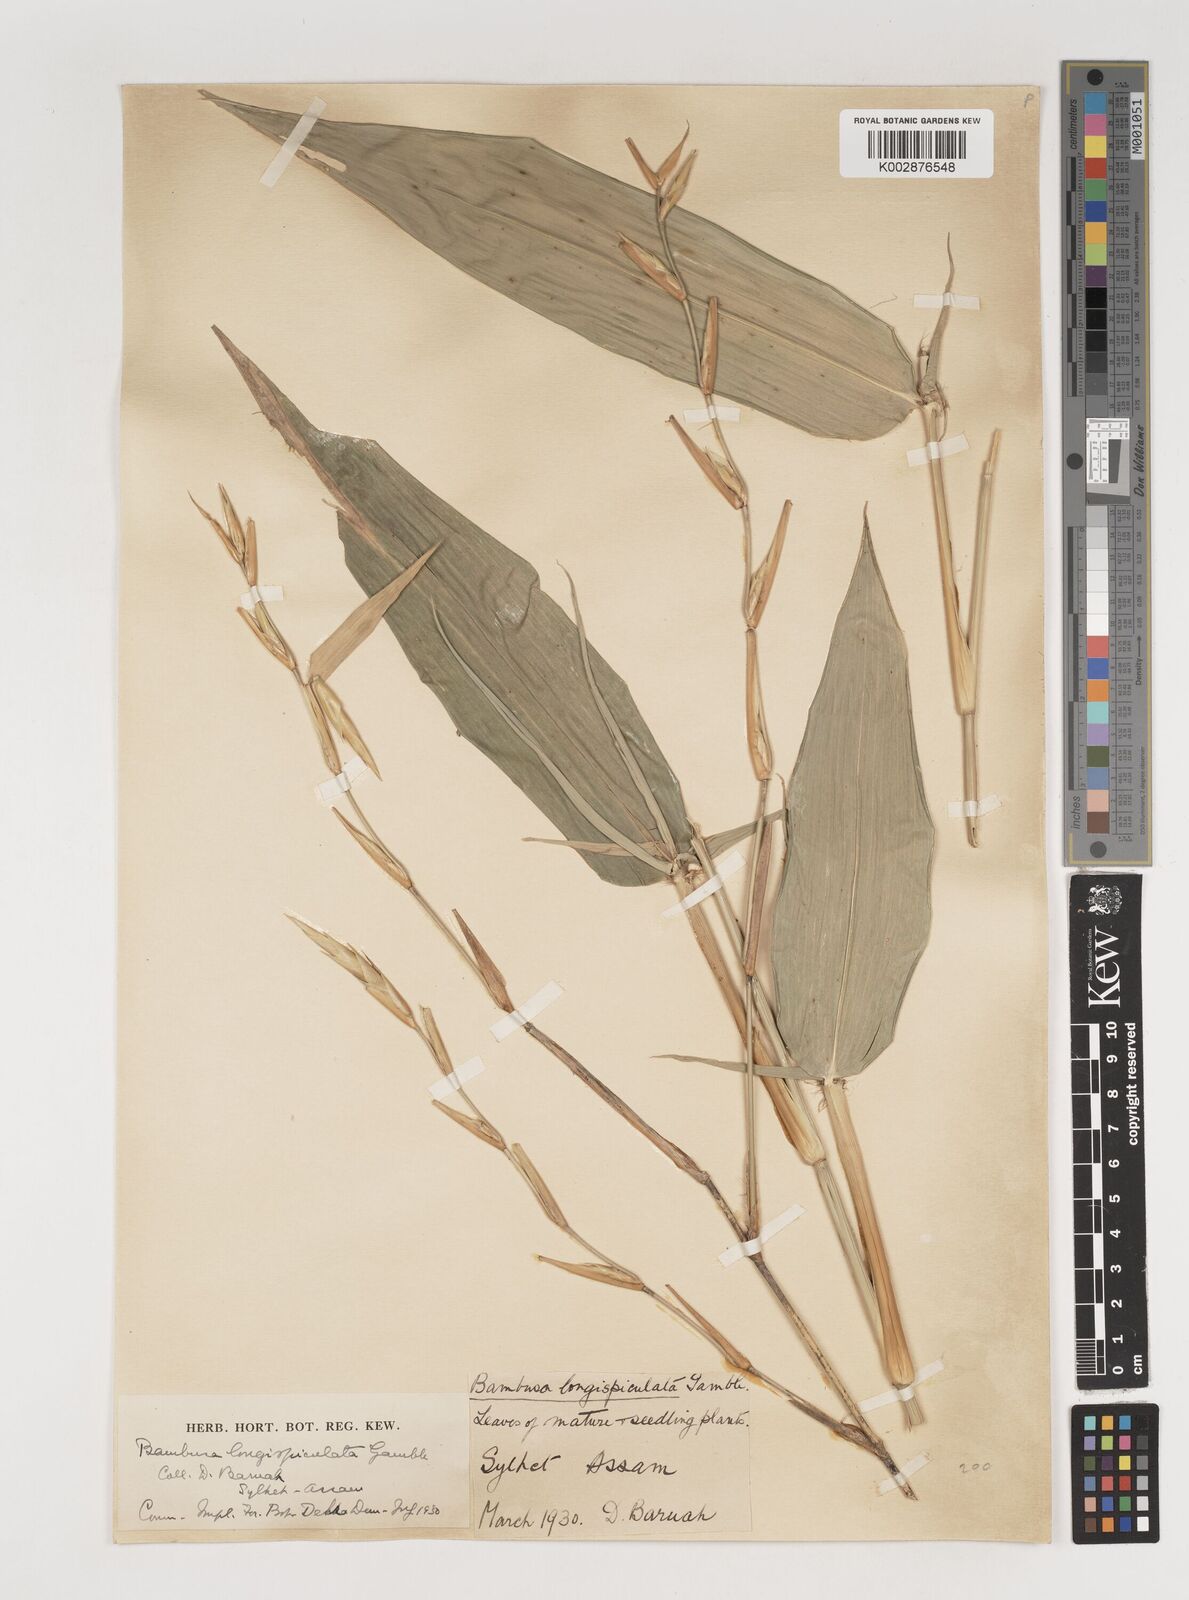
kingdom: Plantae
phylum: Tracheophyta
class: Liliopsida
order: Poales
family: Poaceae
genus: Bambusa
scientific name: Bambusa longispiculata
